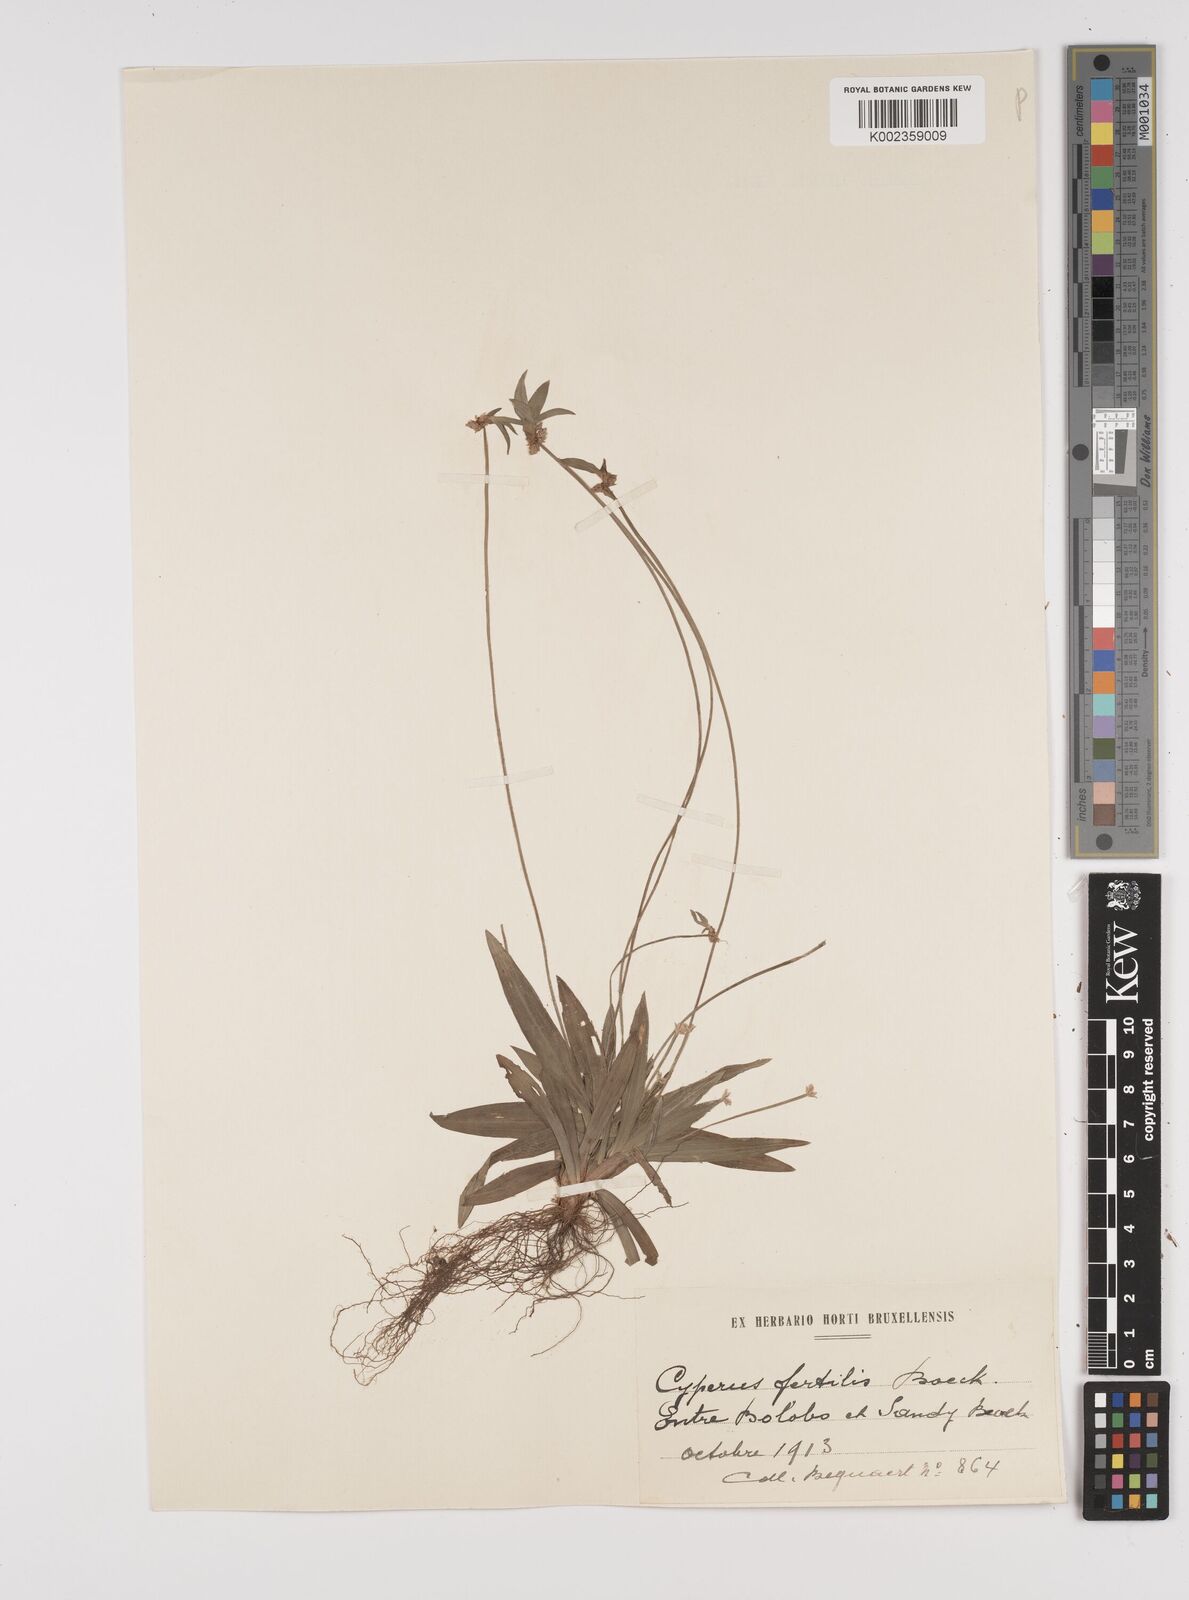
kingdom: Plantae
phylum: Tracheophyta
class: Liliopsida
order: Poales
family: Cyperaceae
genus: Cyperus
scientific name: Cyperus fertilis
